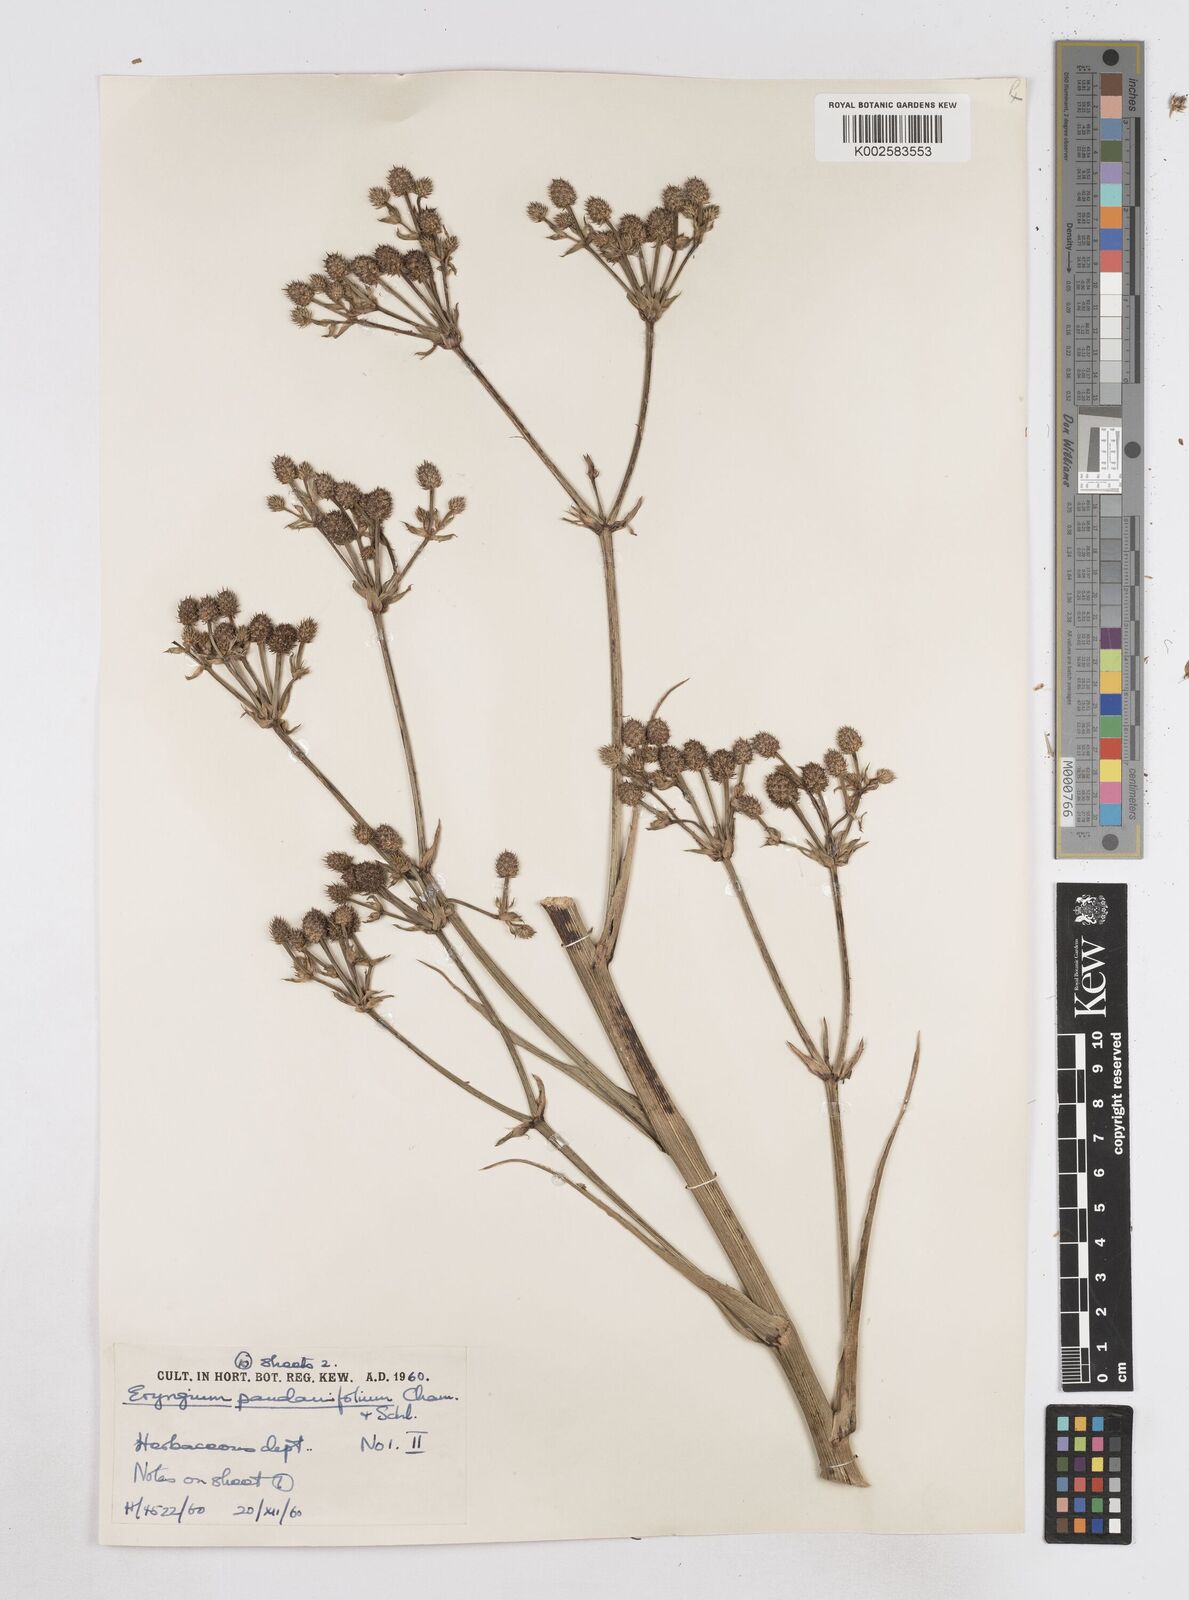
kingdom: Plantae
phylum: Tracheophyta
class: Magnoliopsida
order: Apiales
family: Apiaceae
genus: Eryngium
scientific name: Eryngium pandanifolium
